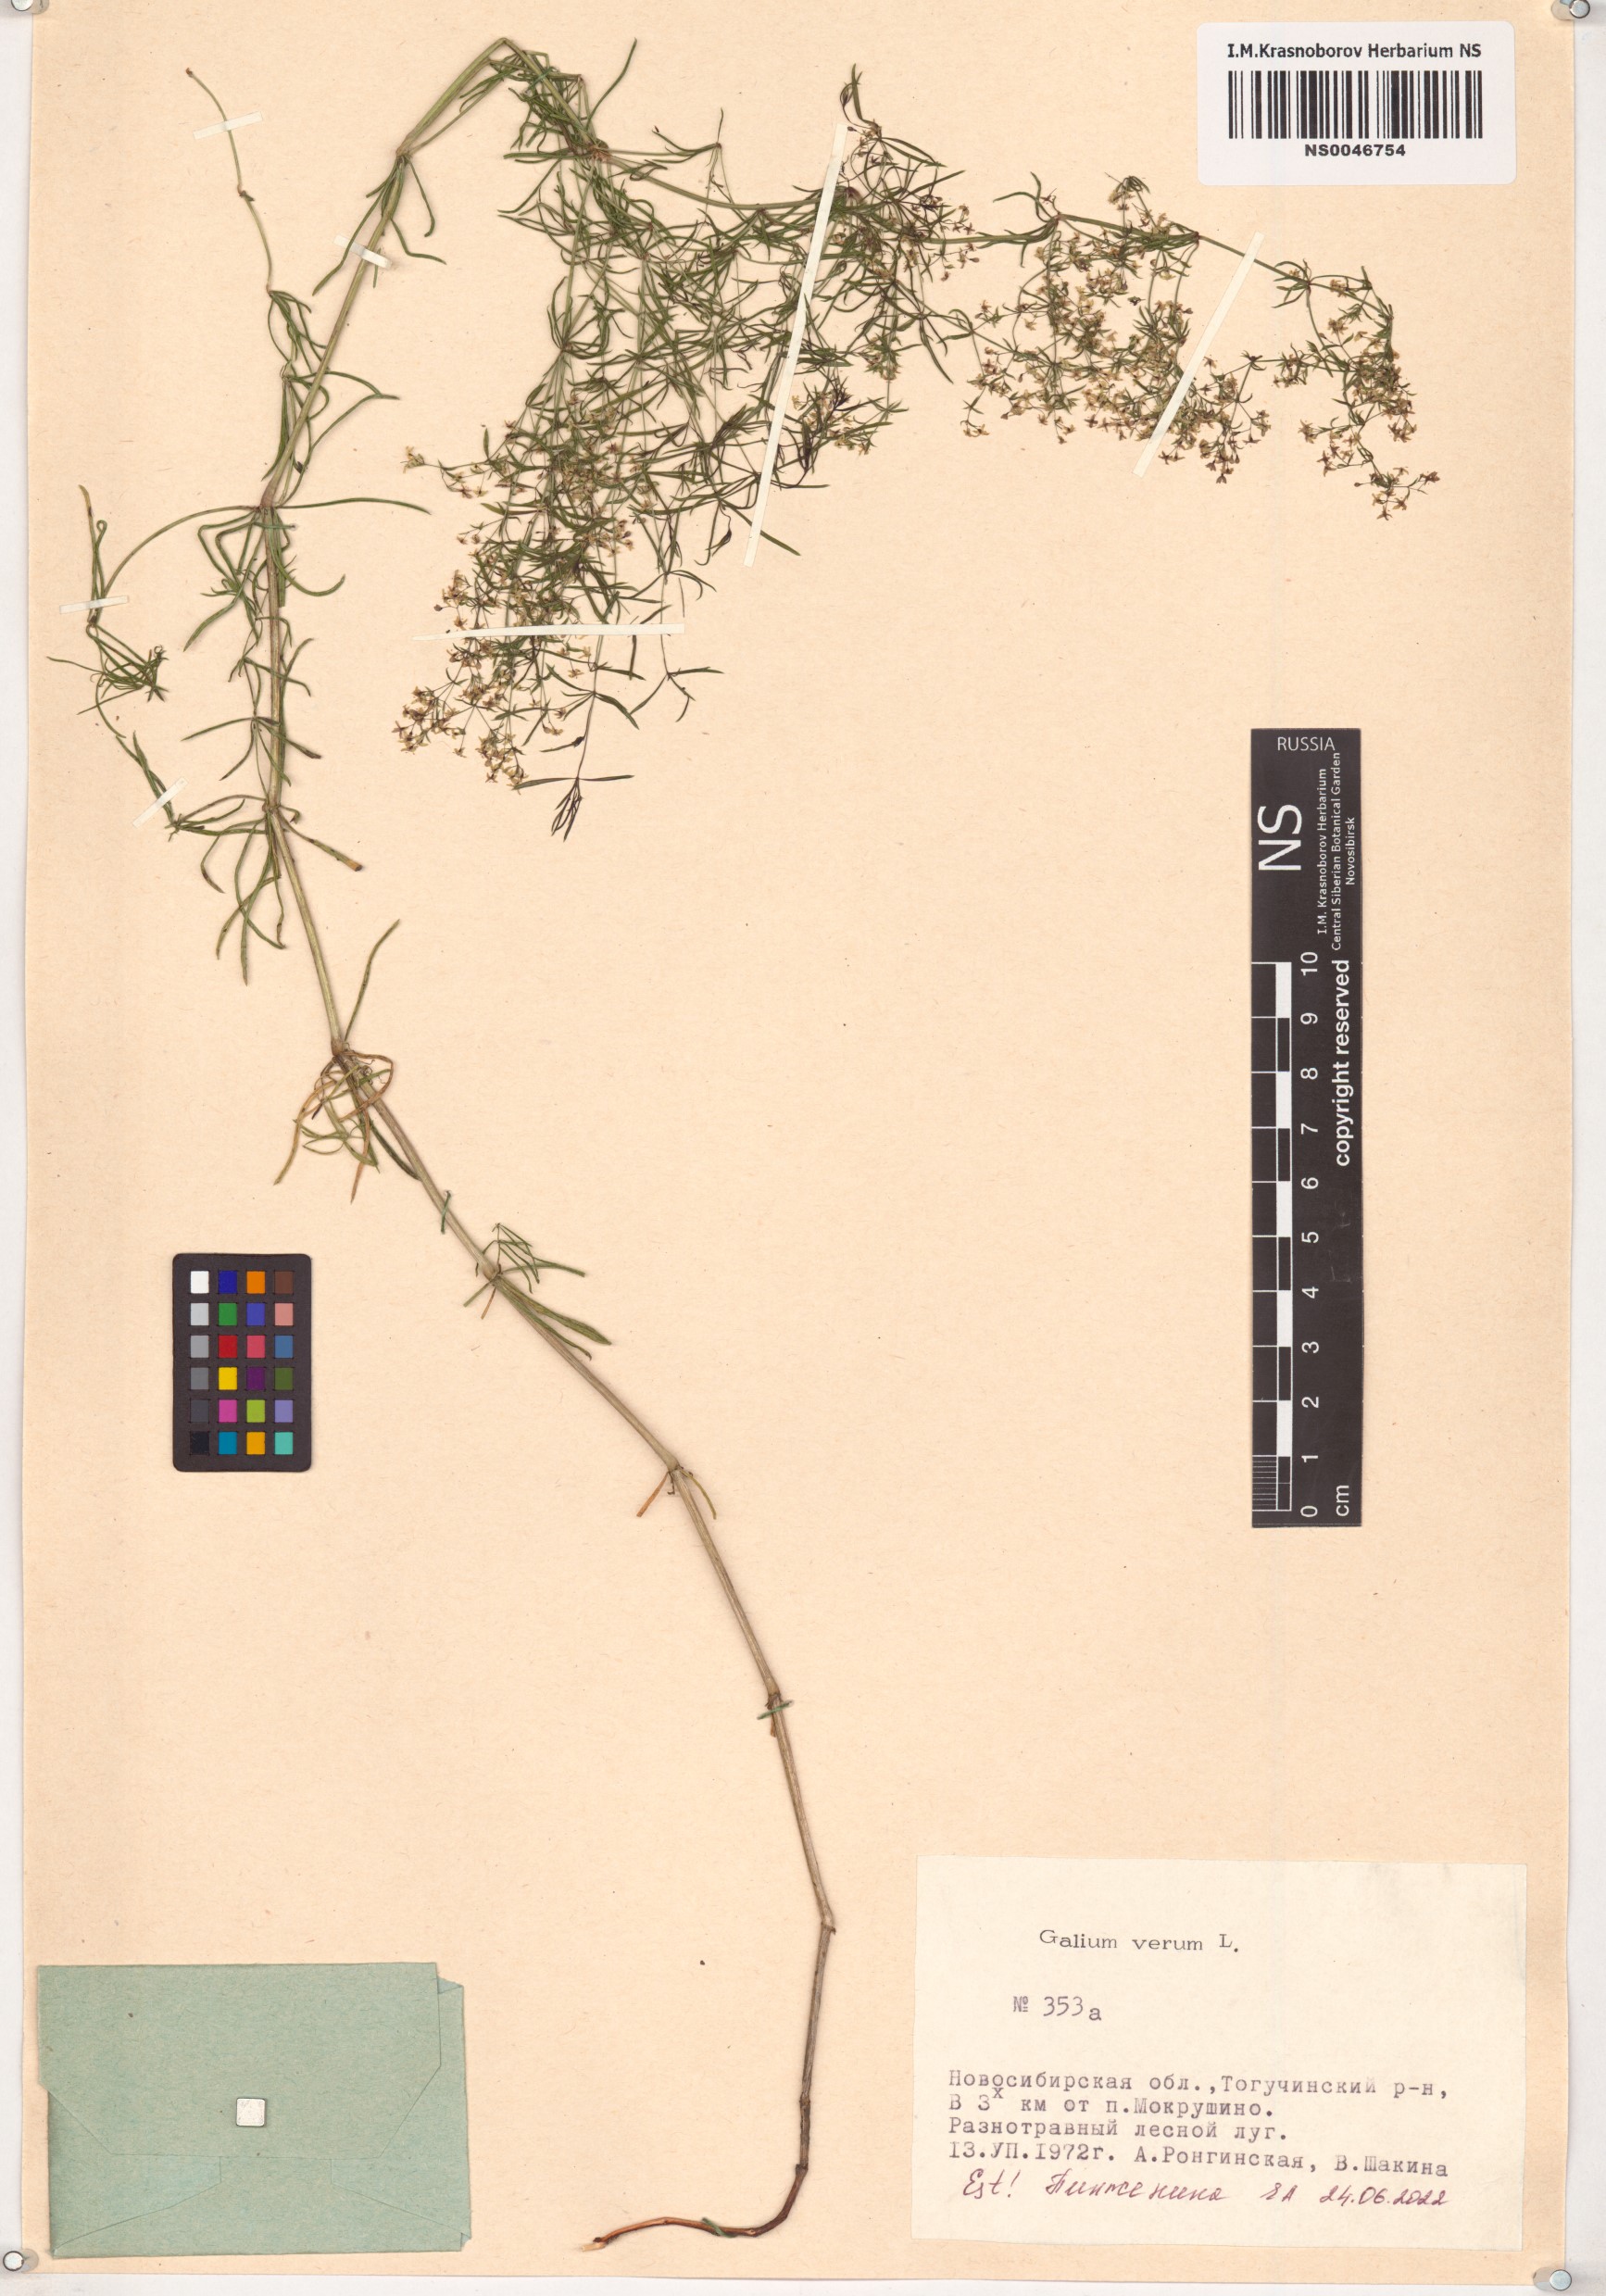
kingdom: Plantae
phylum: Tracheophyta
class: Magnoliopsida
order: Gentianales
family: Rubiaceae
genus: Galium
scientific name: Galium verum
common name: Lady's bedstraw
